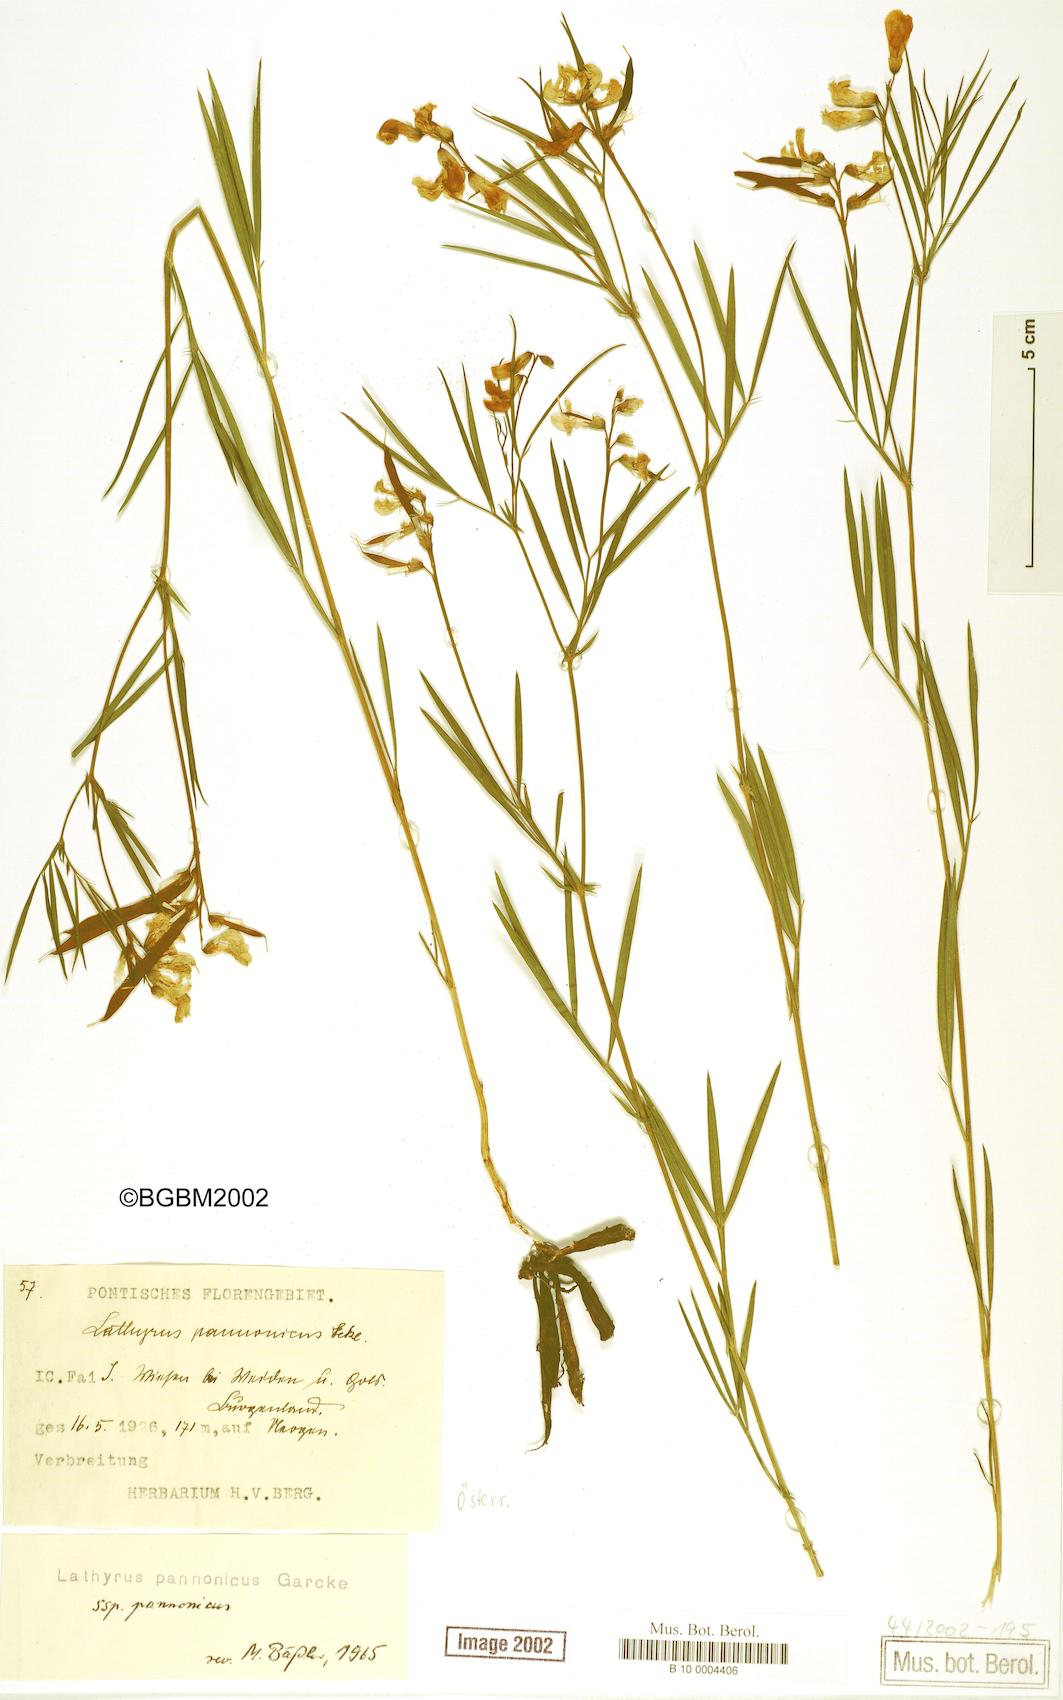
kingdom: Plantae
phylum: Tracheophyta
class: Magnoliopsida
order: Fabales
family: Fabaceae
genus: Lathyrus
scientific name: Lathyrus pannonicus
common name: Pea
